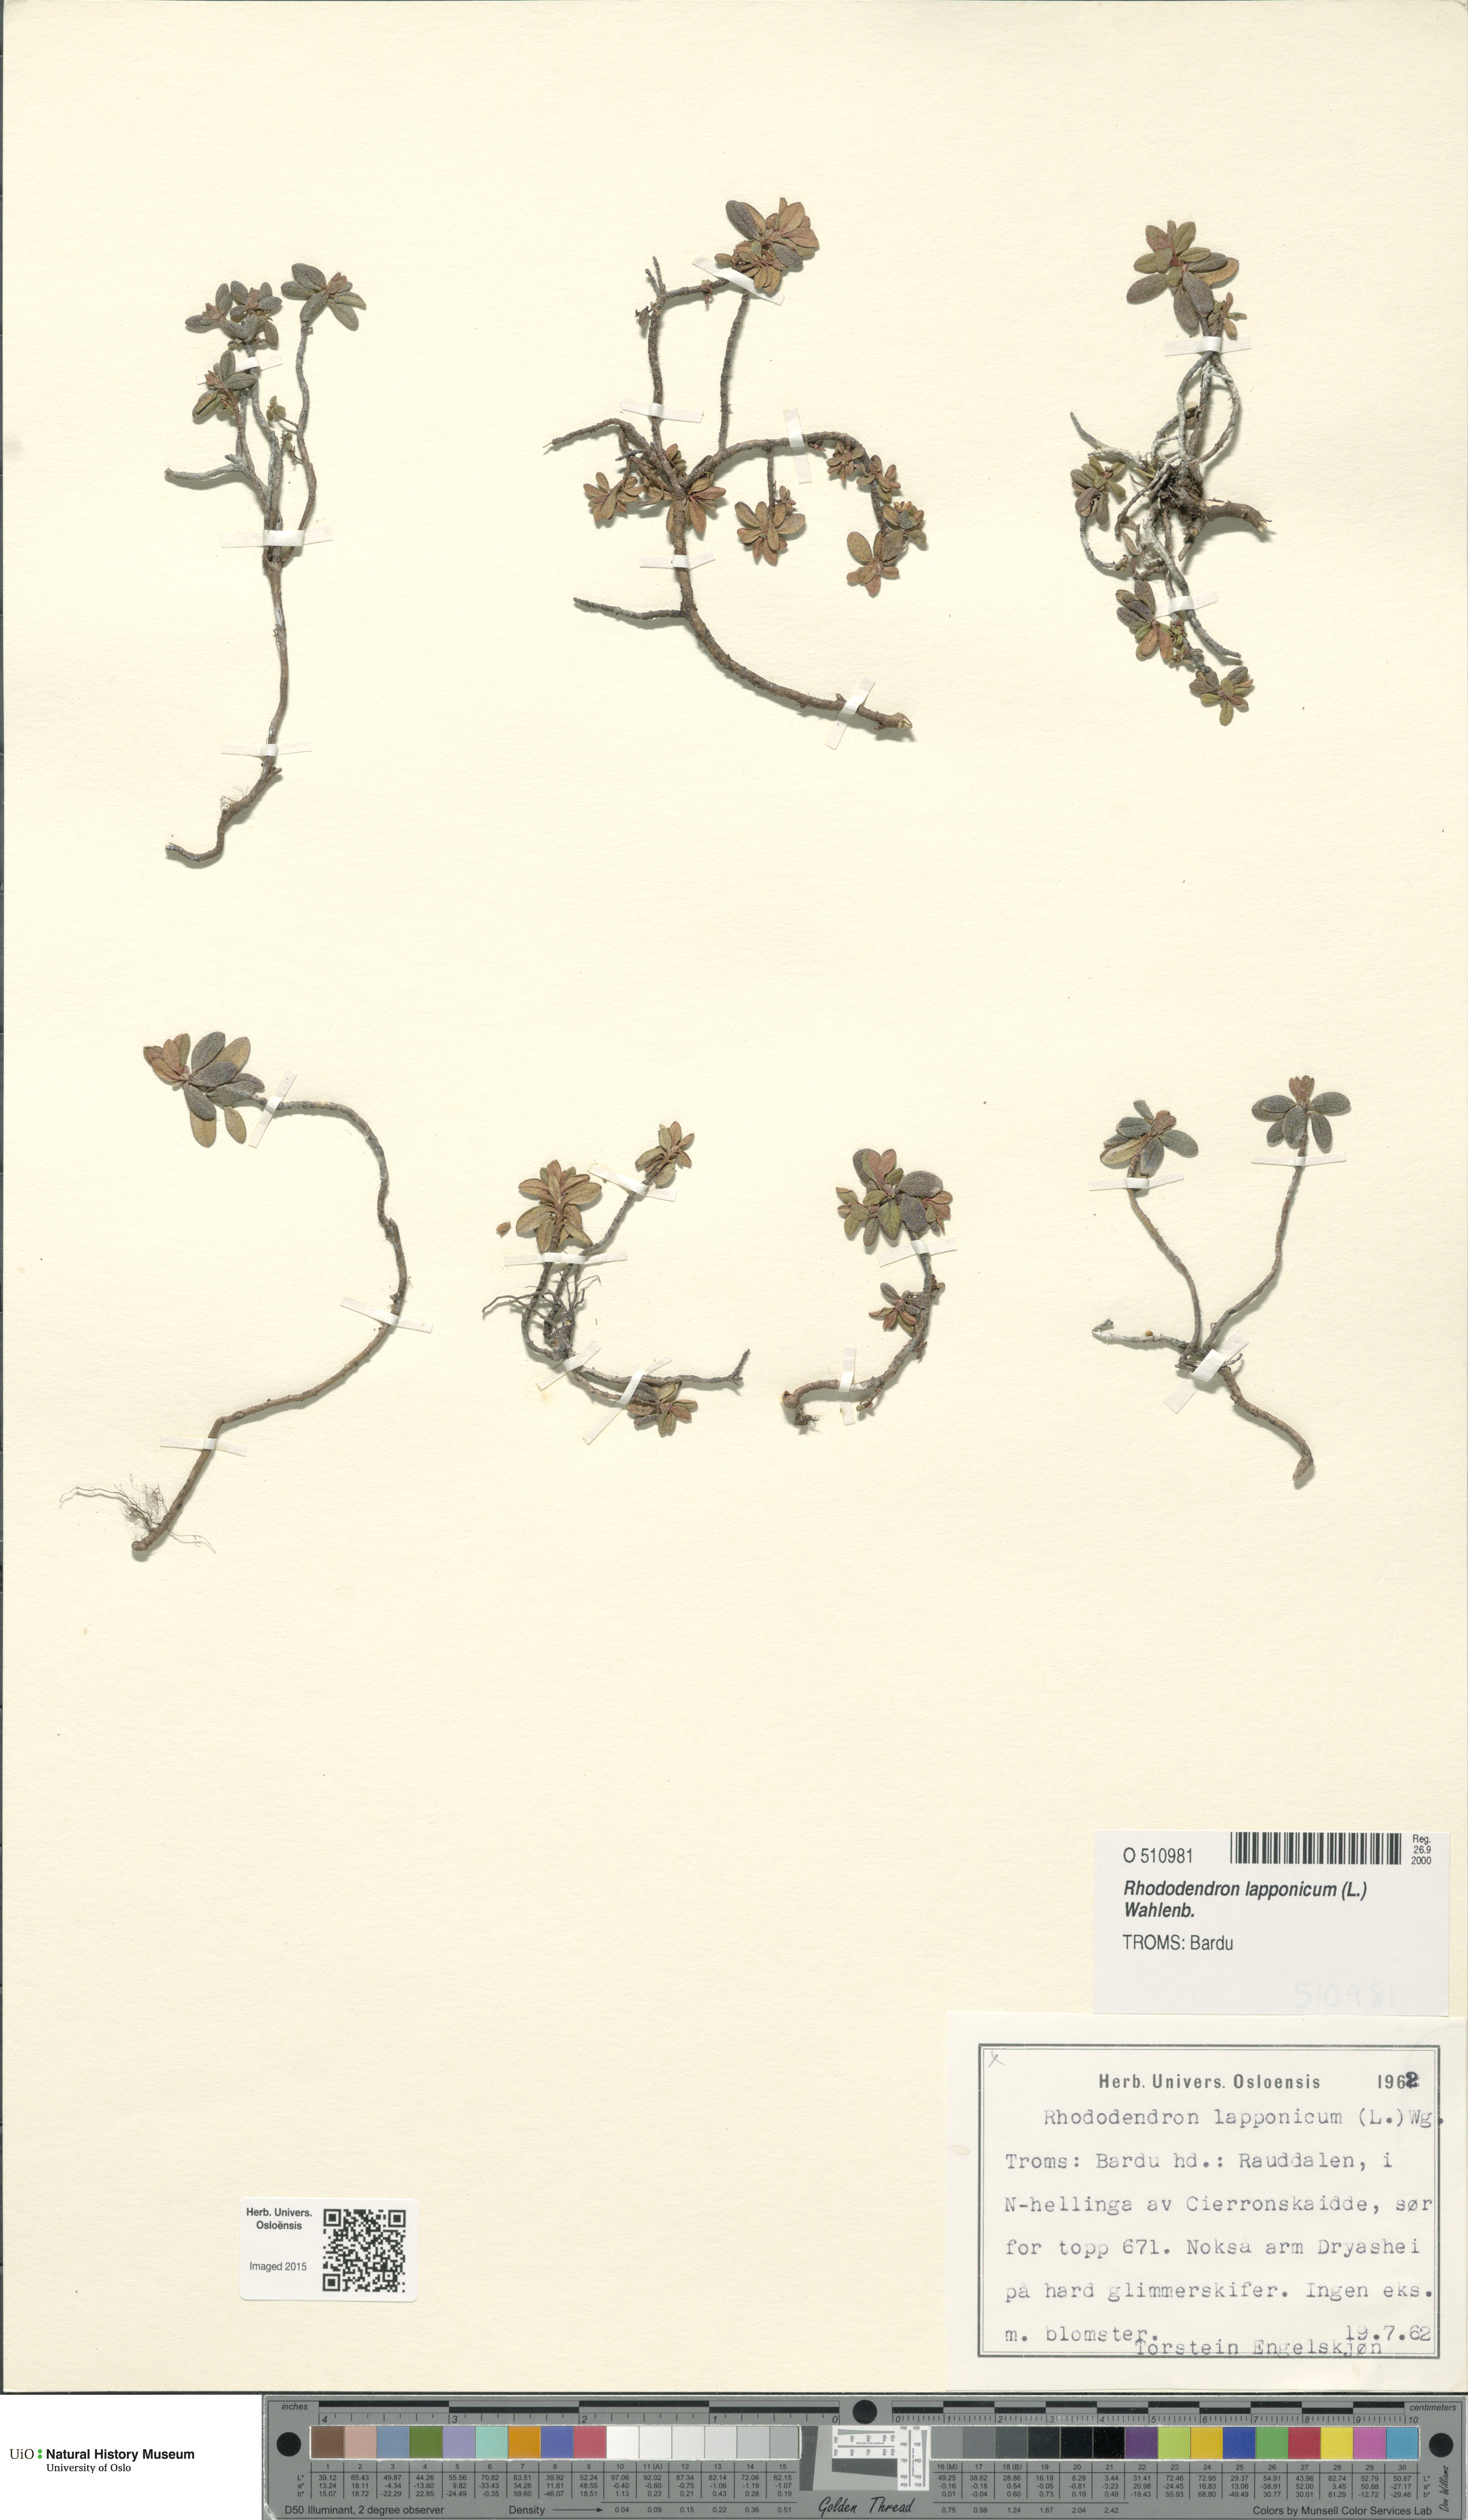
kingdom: Plantae
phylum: Tracheophyta
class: Magnoliopsida
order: Ericales
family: Ericaceae
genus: Rhododendron
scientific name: Rhododendron lapponicum
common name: Lapland rhododendron
